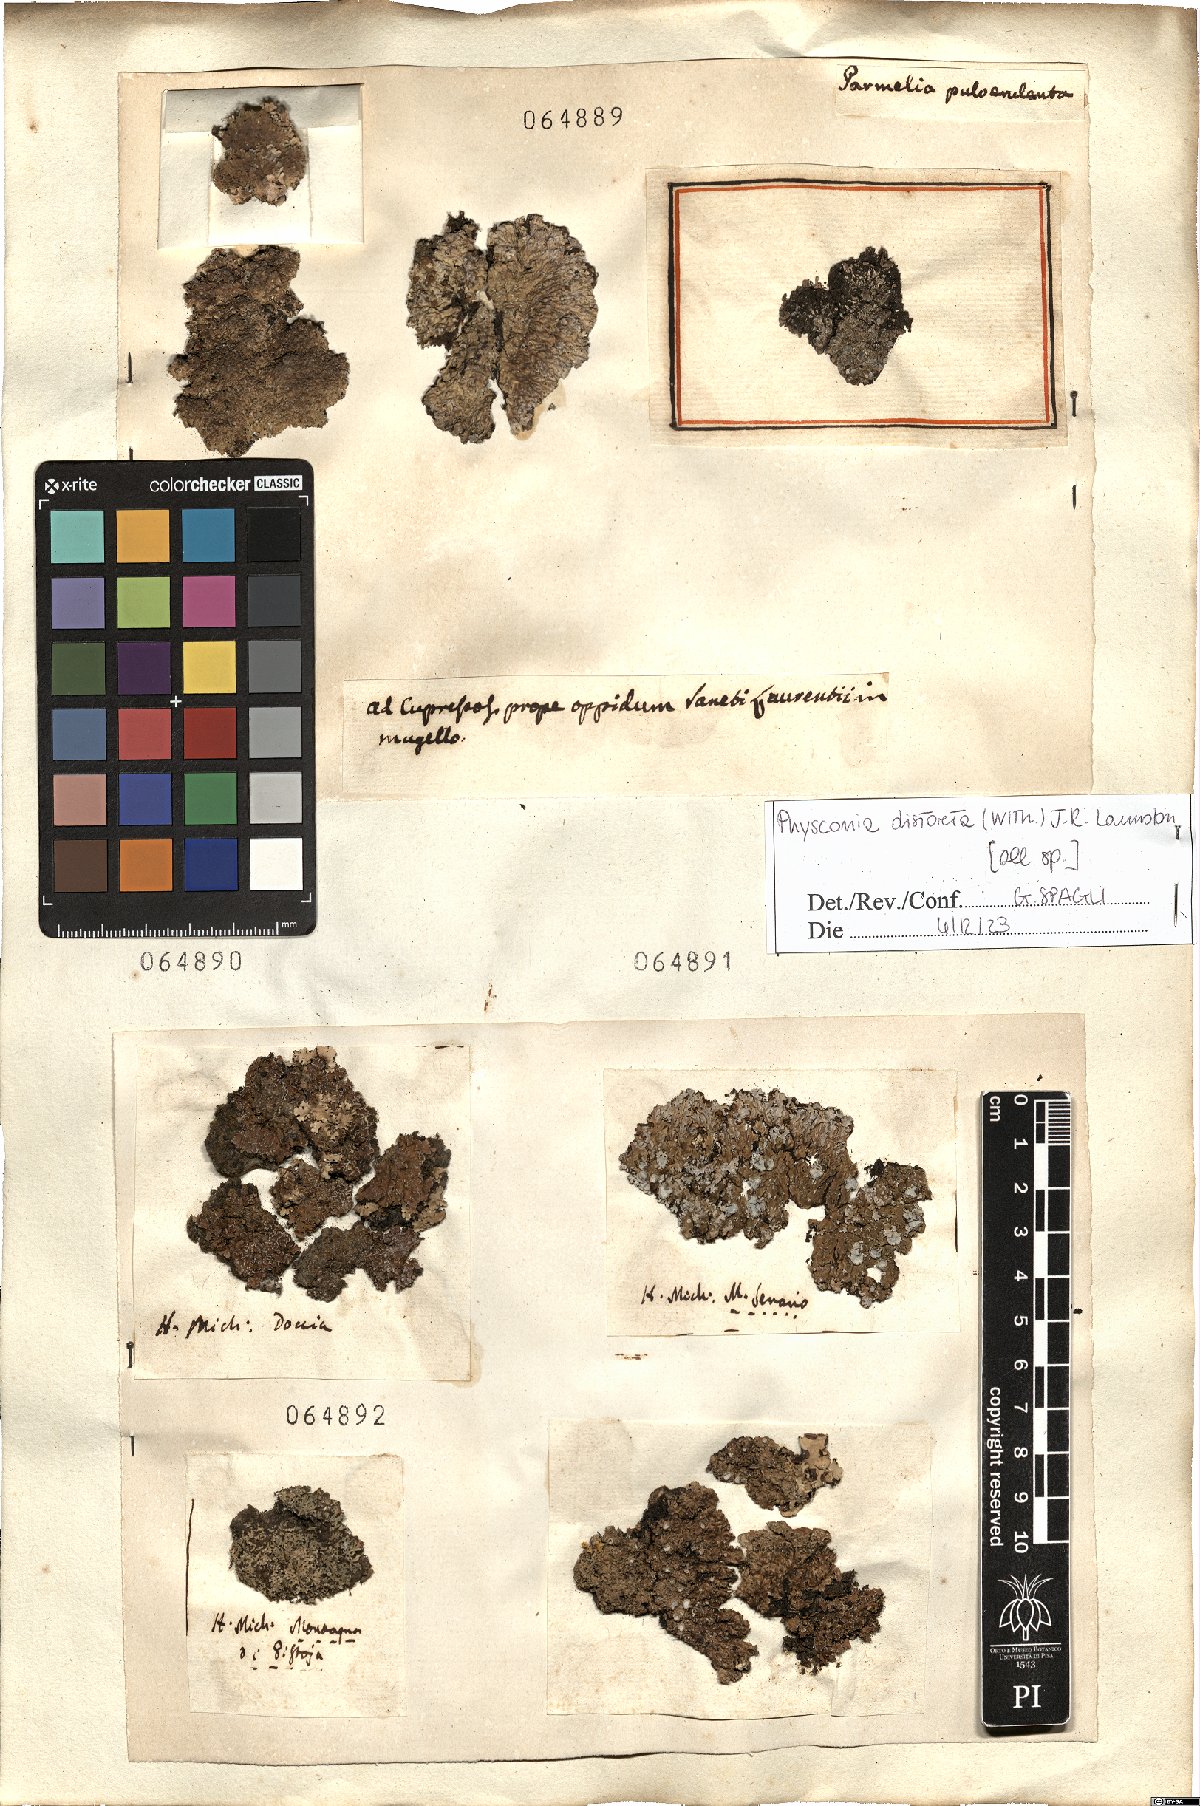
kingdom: Fungi
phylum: Ascomycota
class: Lecanoromycetes
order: Caliciales
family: Physciaceae
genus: Physconia
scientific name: Physconia distorta
